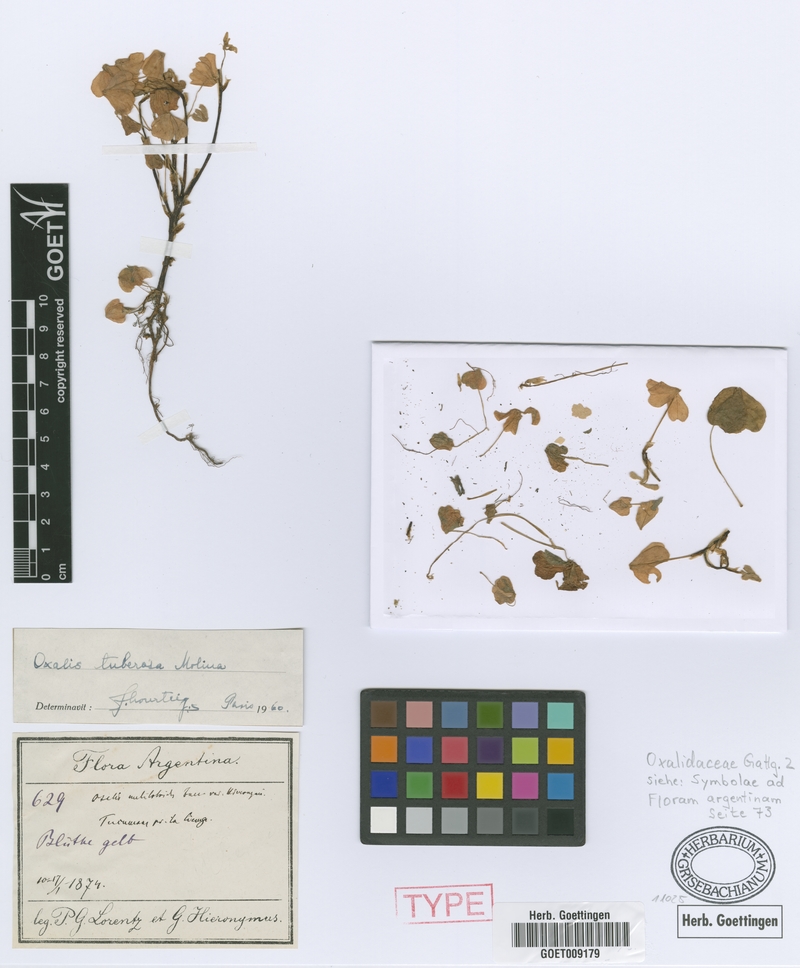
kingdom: Plantae
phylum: Tracheophyta
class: Magnoliopsida
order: Oxalidales
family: Oxalidaceae
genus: Oxalis
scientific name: Oxalis tuberosa
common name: New zealand-yam
